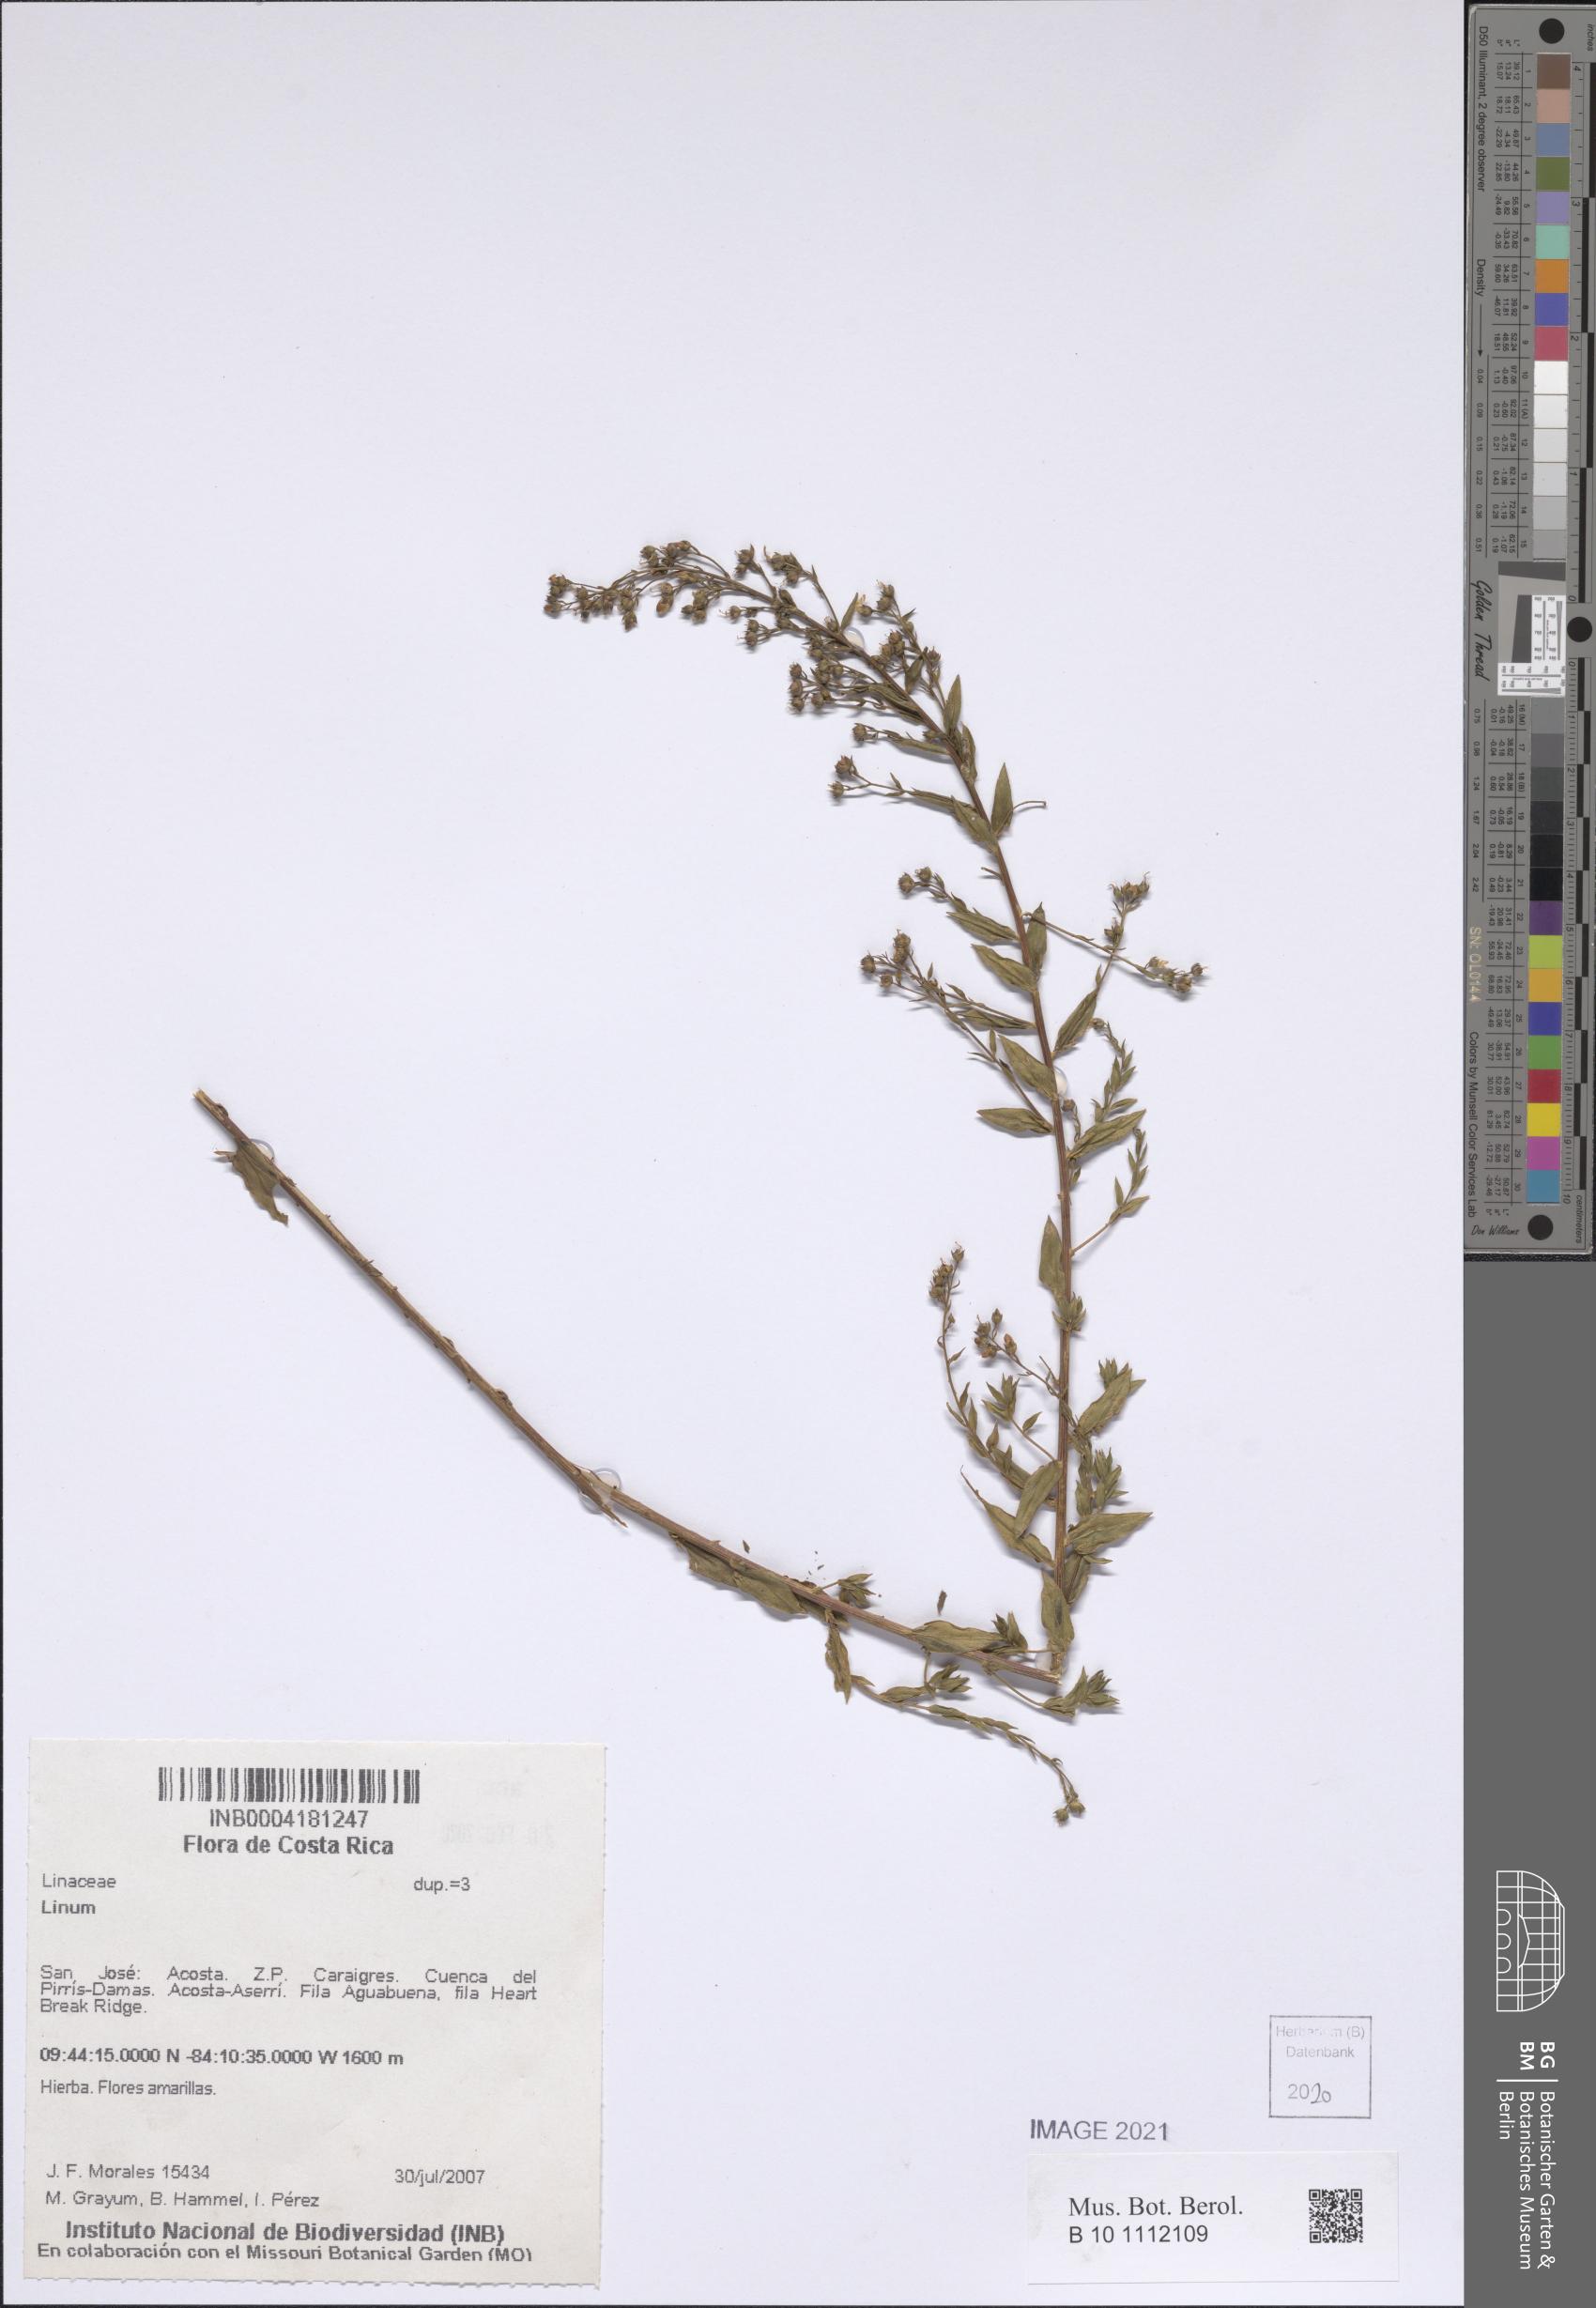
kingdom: Plantae
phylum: Tracheophyta
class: Magnoliopsida
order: Malpighiales
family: Linaceae
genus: Linum
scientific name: Linum
